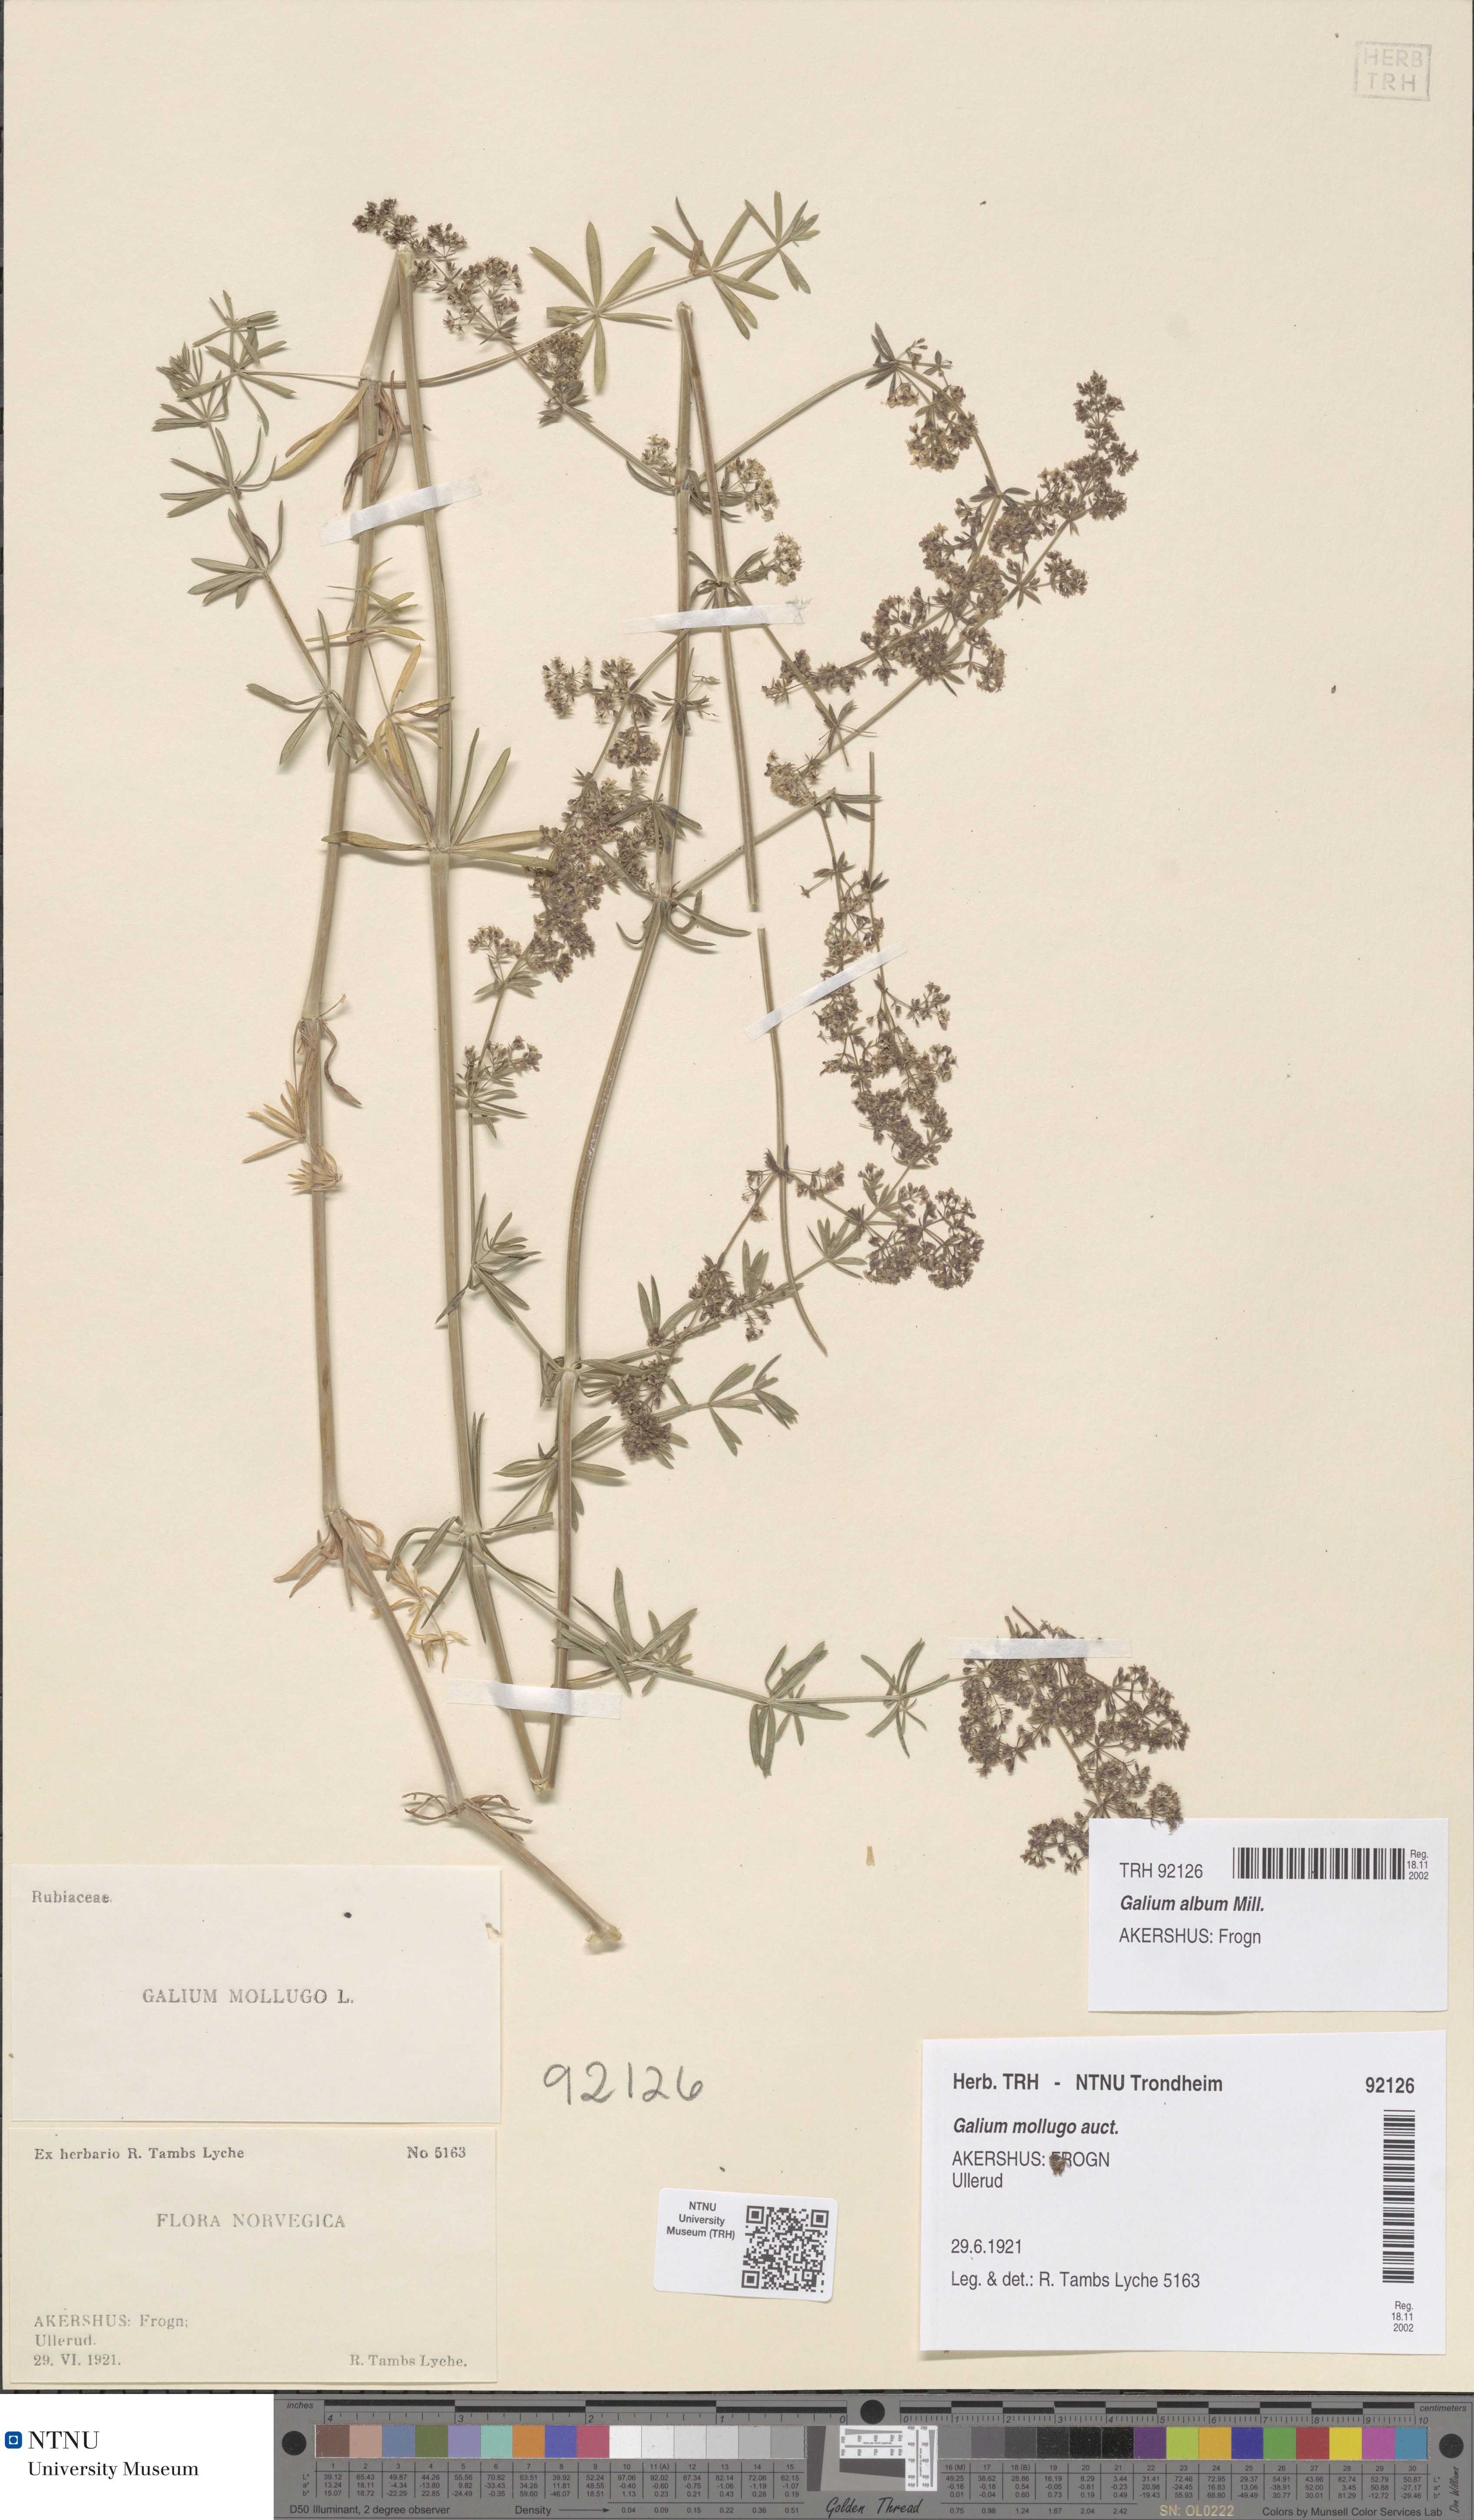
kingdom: Plantae
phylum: Tracheophyta
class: Magnoliopsida
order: Gentianales
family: Rubiaceae
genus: Galium
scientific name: Galium album
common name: White bedstraw
